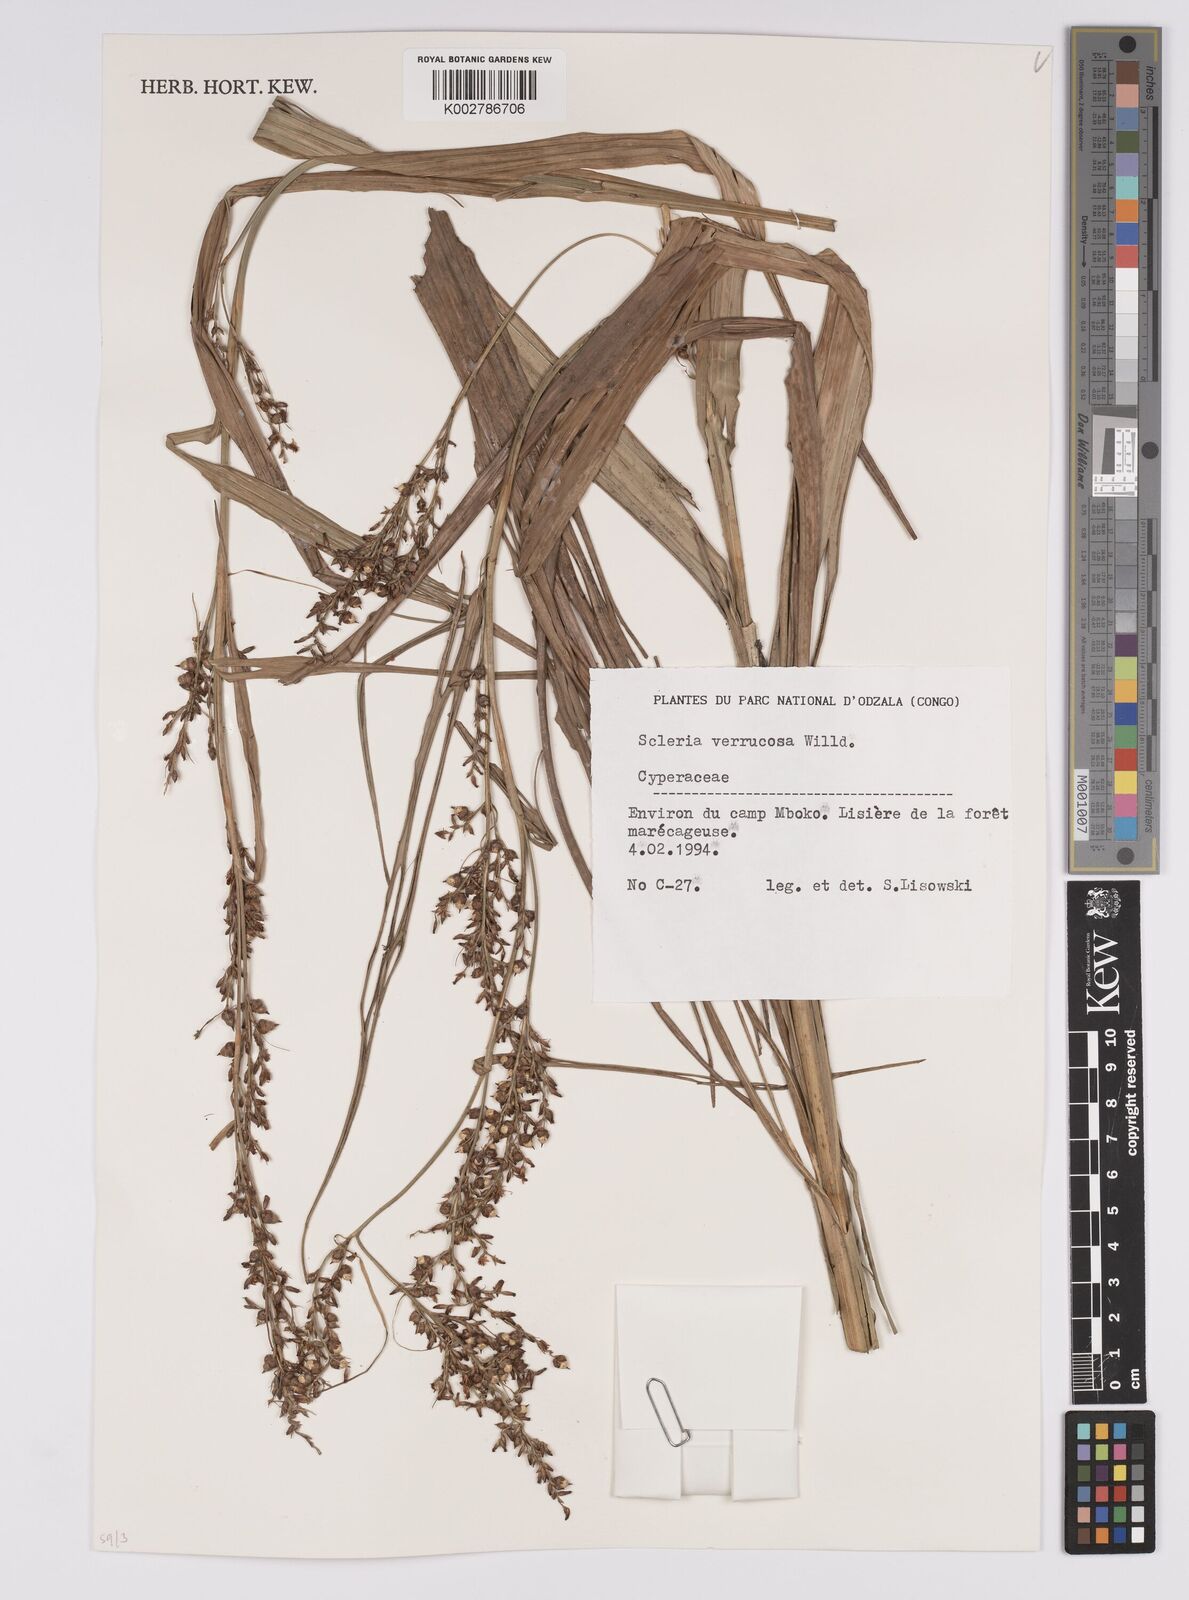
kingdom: Plantae
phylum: Tracheophyta
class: Liliopsida
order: Poales
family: Cyperaceae
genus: Scleria
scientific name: Scleria verrucosa
